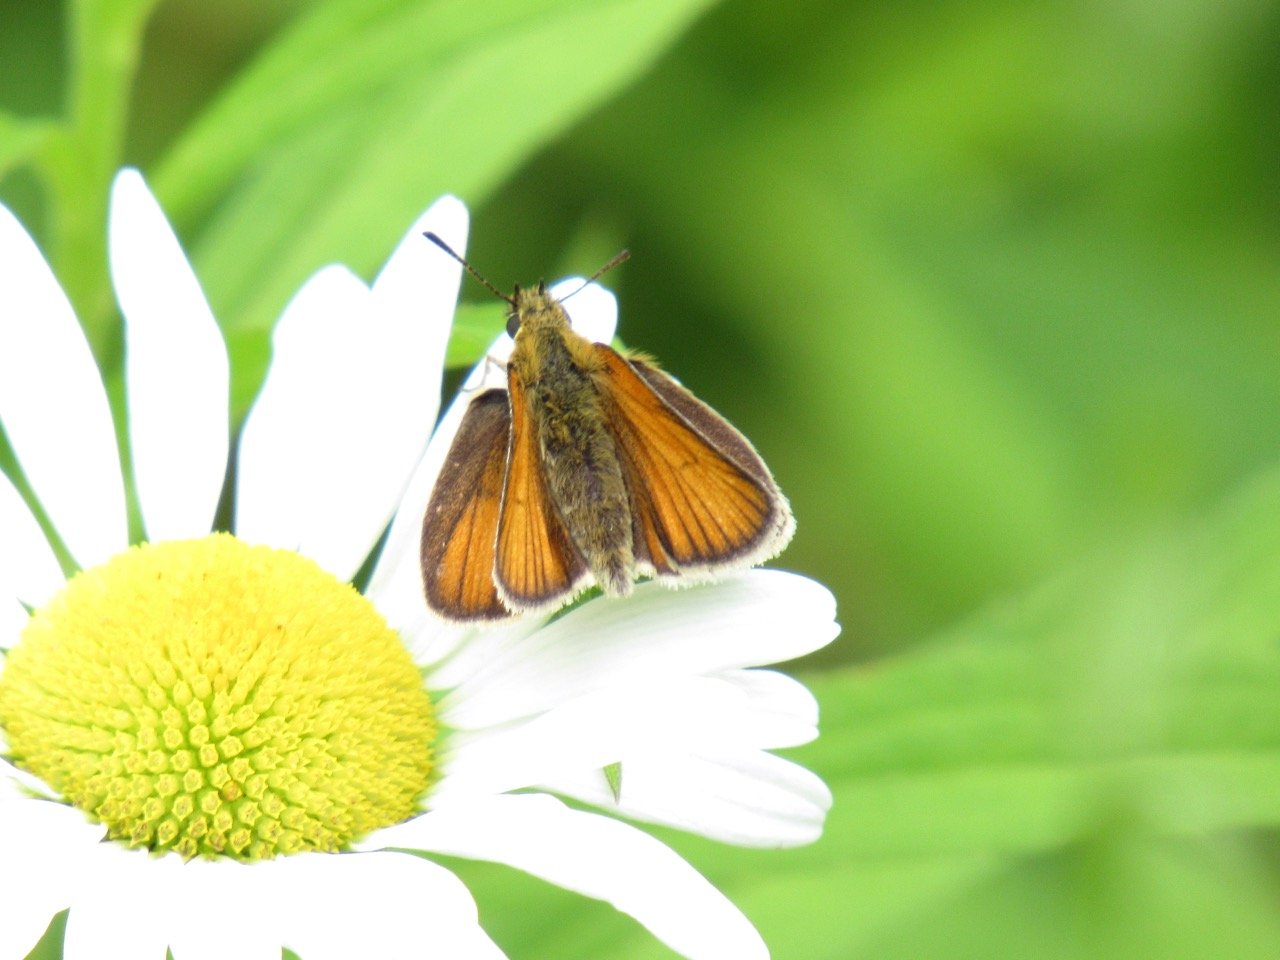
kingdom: Animalia
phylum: Arthropoda
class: Insecta
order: Lepidoptera
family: Hesperiidae
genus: Thymelicus
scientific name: Thymelicus lineola
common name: European Skipper
